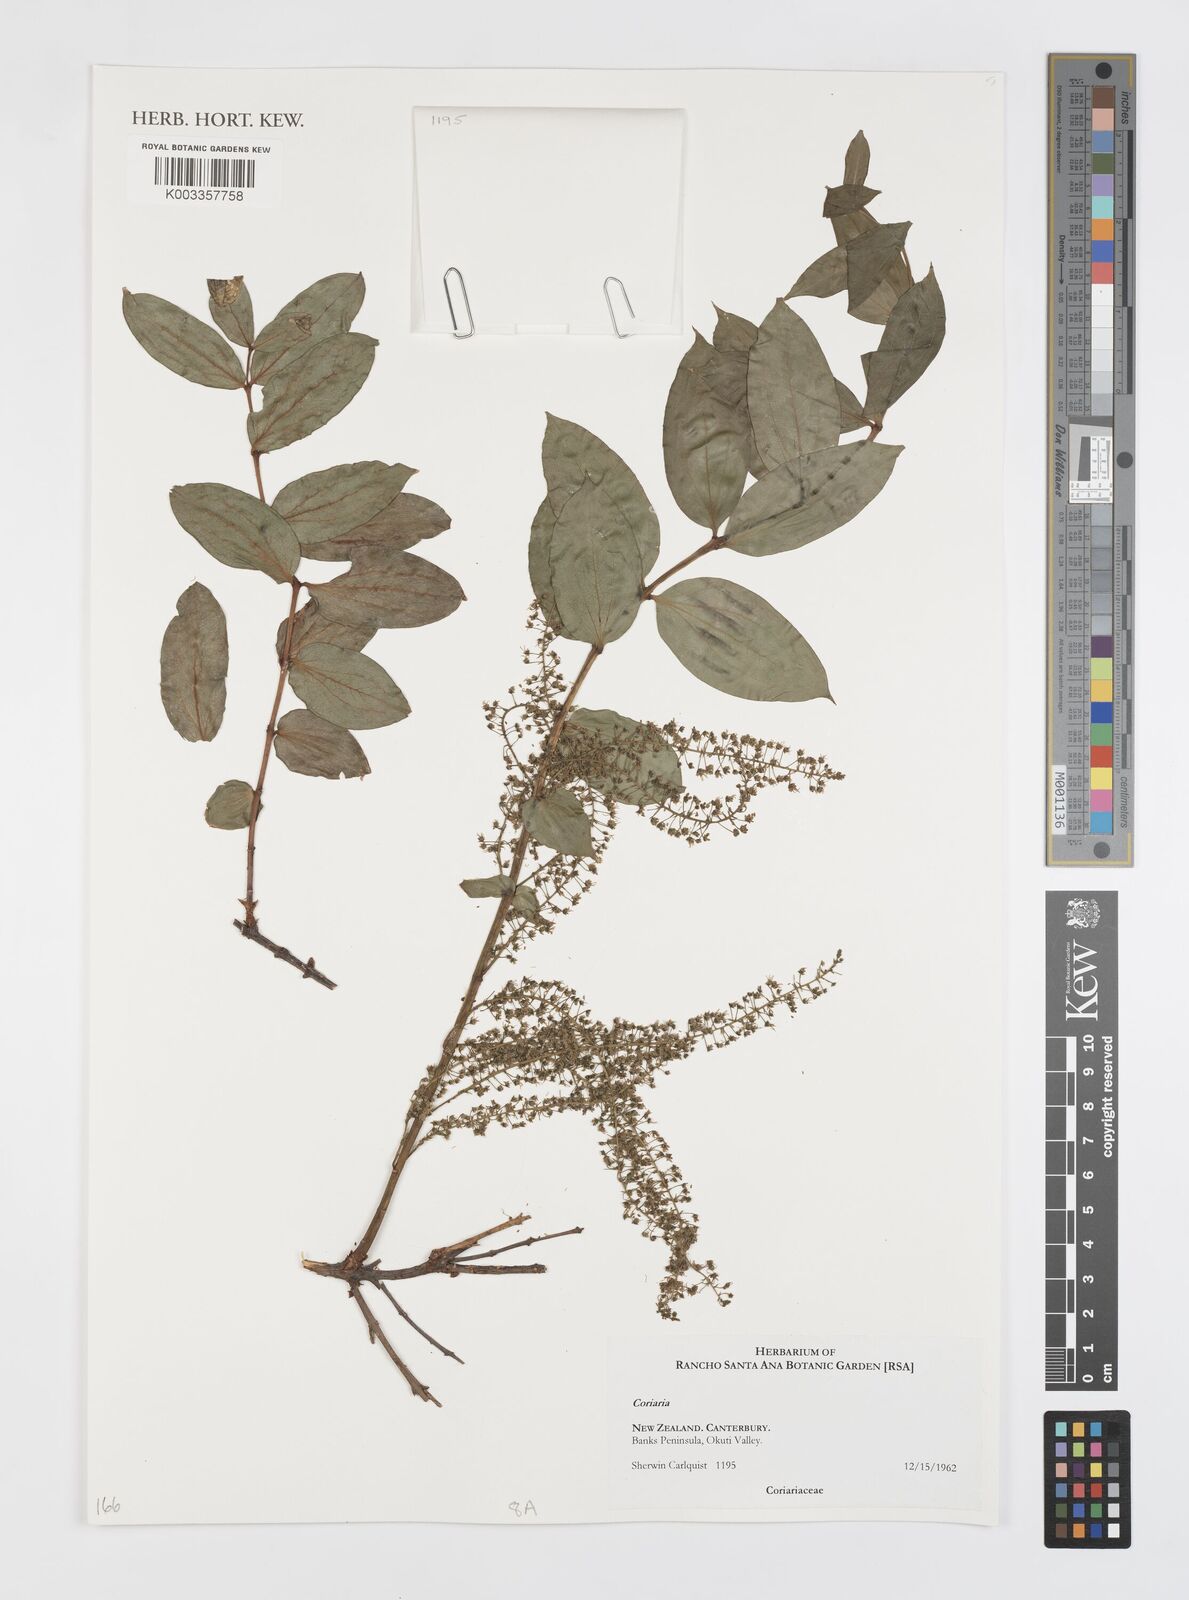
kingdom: Plantae
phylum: Tracheophyta
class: Magnoliopsida
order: Cucurbitales
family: Coriariaceae
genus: Coriaria
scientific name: Coriaria
